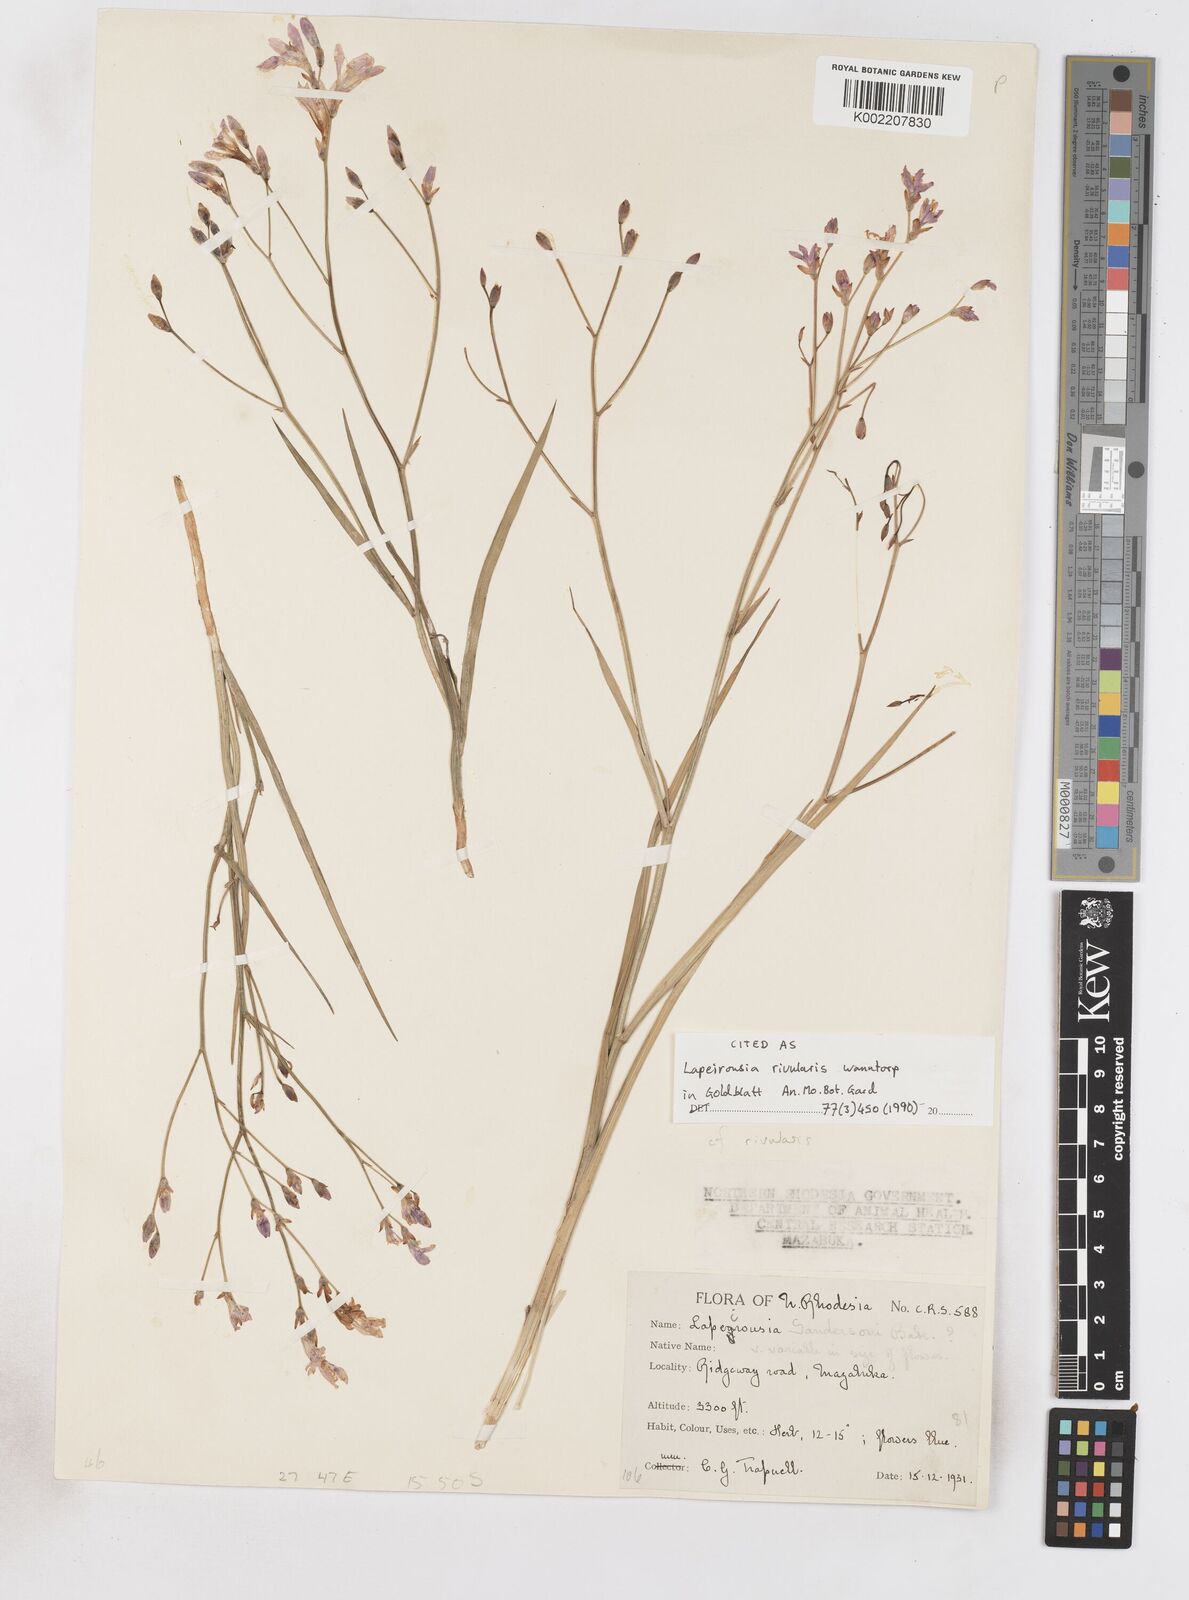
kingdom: Plantae
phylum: Tracheophyta
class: Liliopsida
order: Asparagales
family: Iridaceae
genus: Afrosolen
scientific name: Afrosolen rivularis
